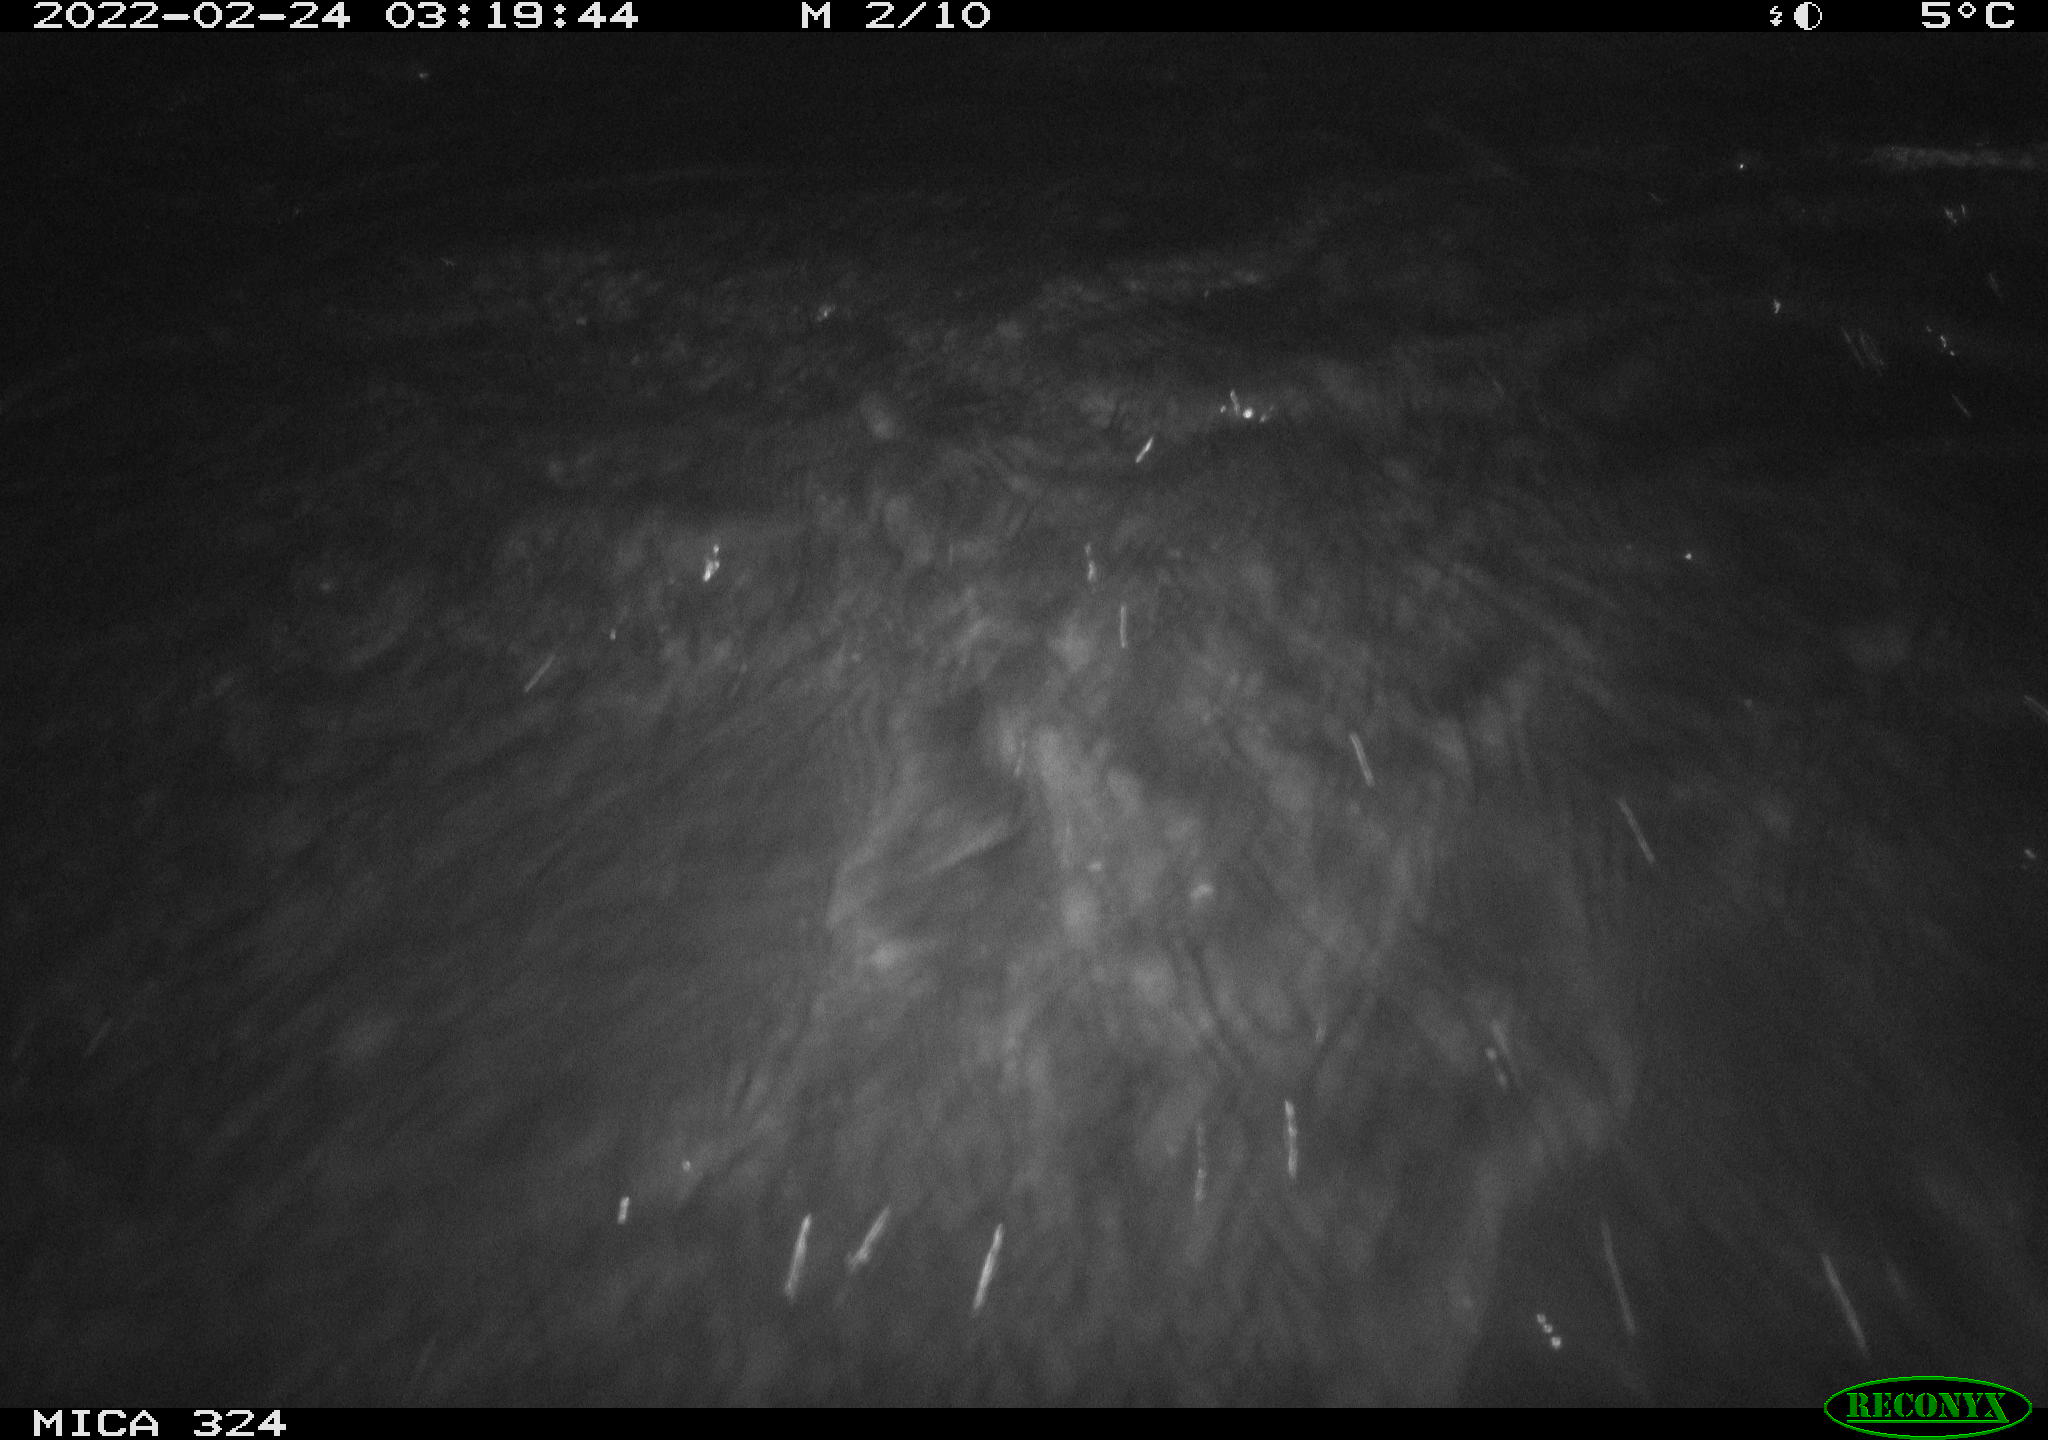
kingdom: Animalia
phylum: Chordata
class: Mammalia
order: Rodentia
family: Cricetidae
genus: Ondatra
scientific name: Ondatra zibethicus
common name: Muskrat
